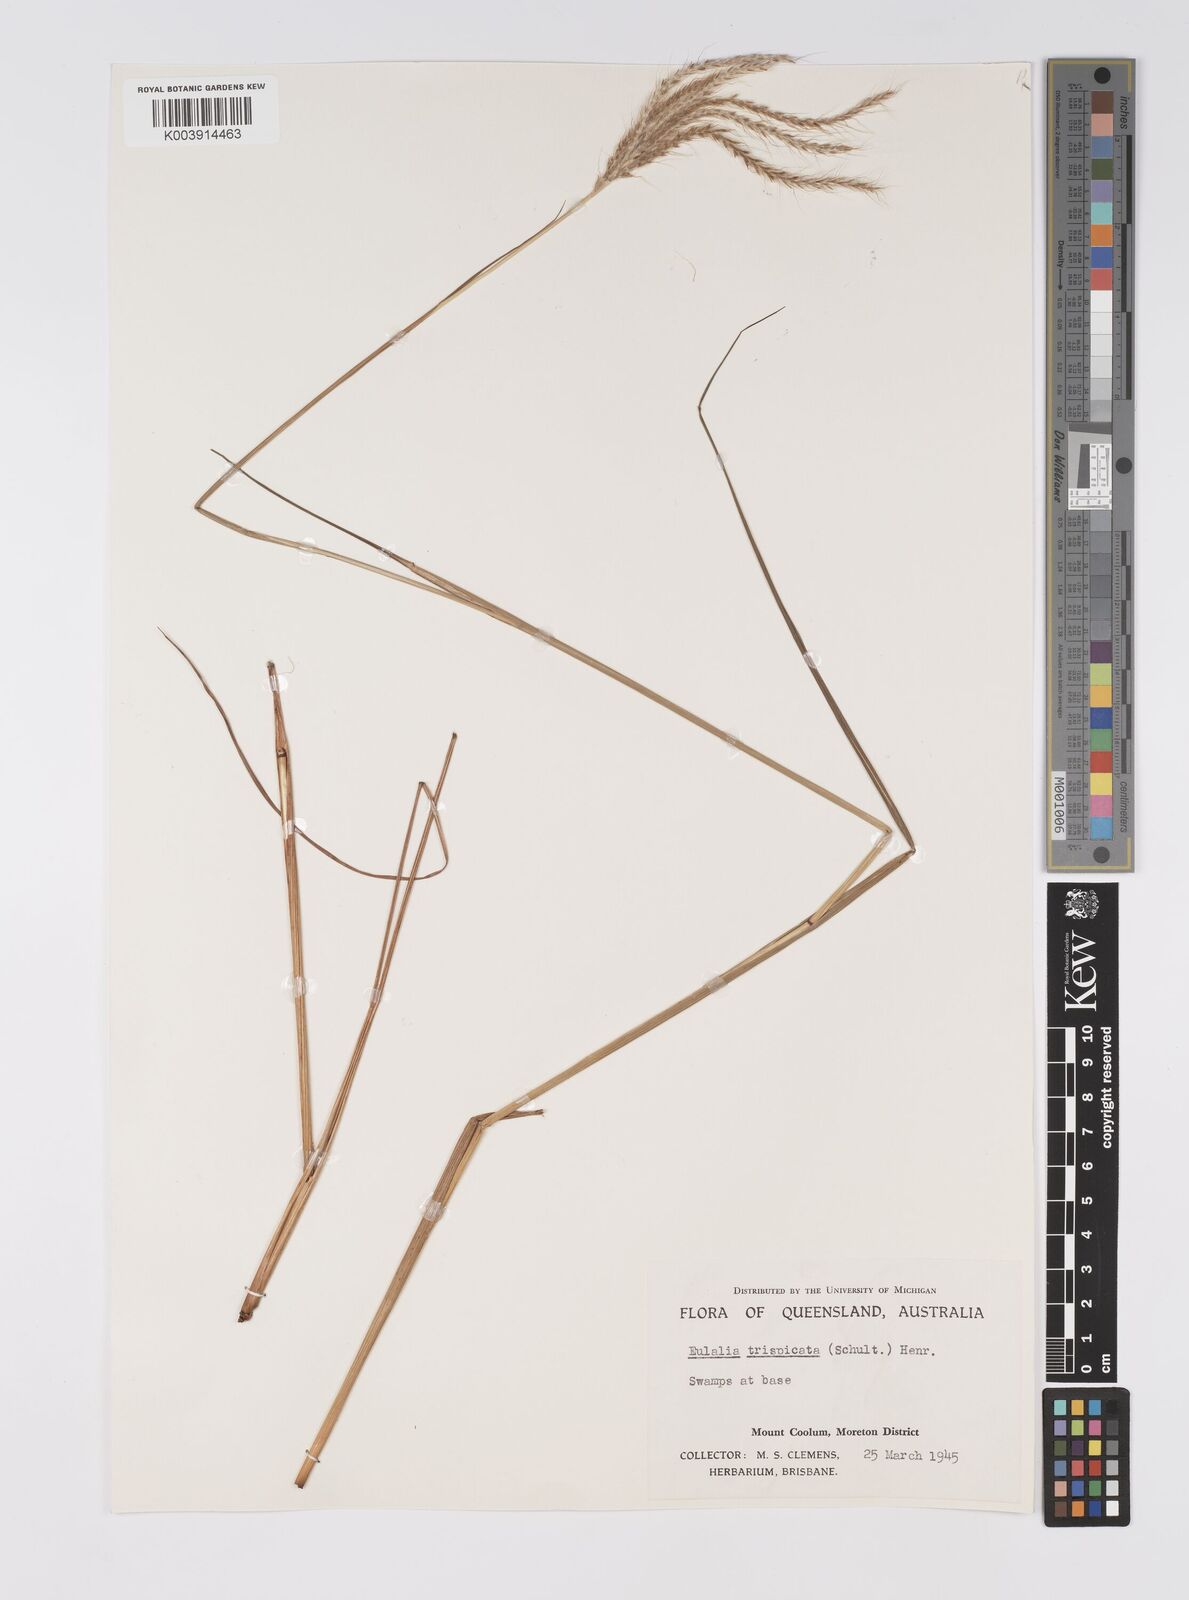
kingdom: Plantae
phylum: Tracheophyta
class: Liliopsida
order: Poales
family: Poaceae
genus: Pseudopogonatherum
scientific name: Pseudopogonatherum trispicatum
